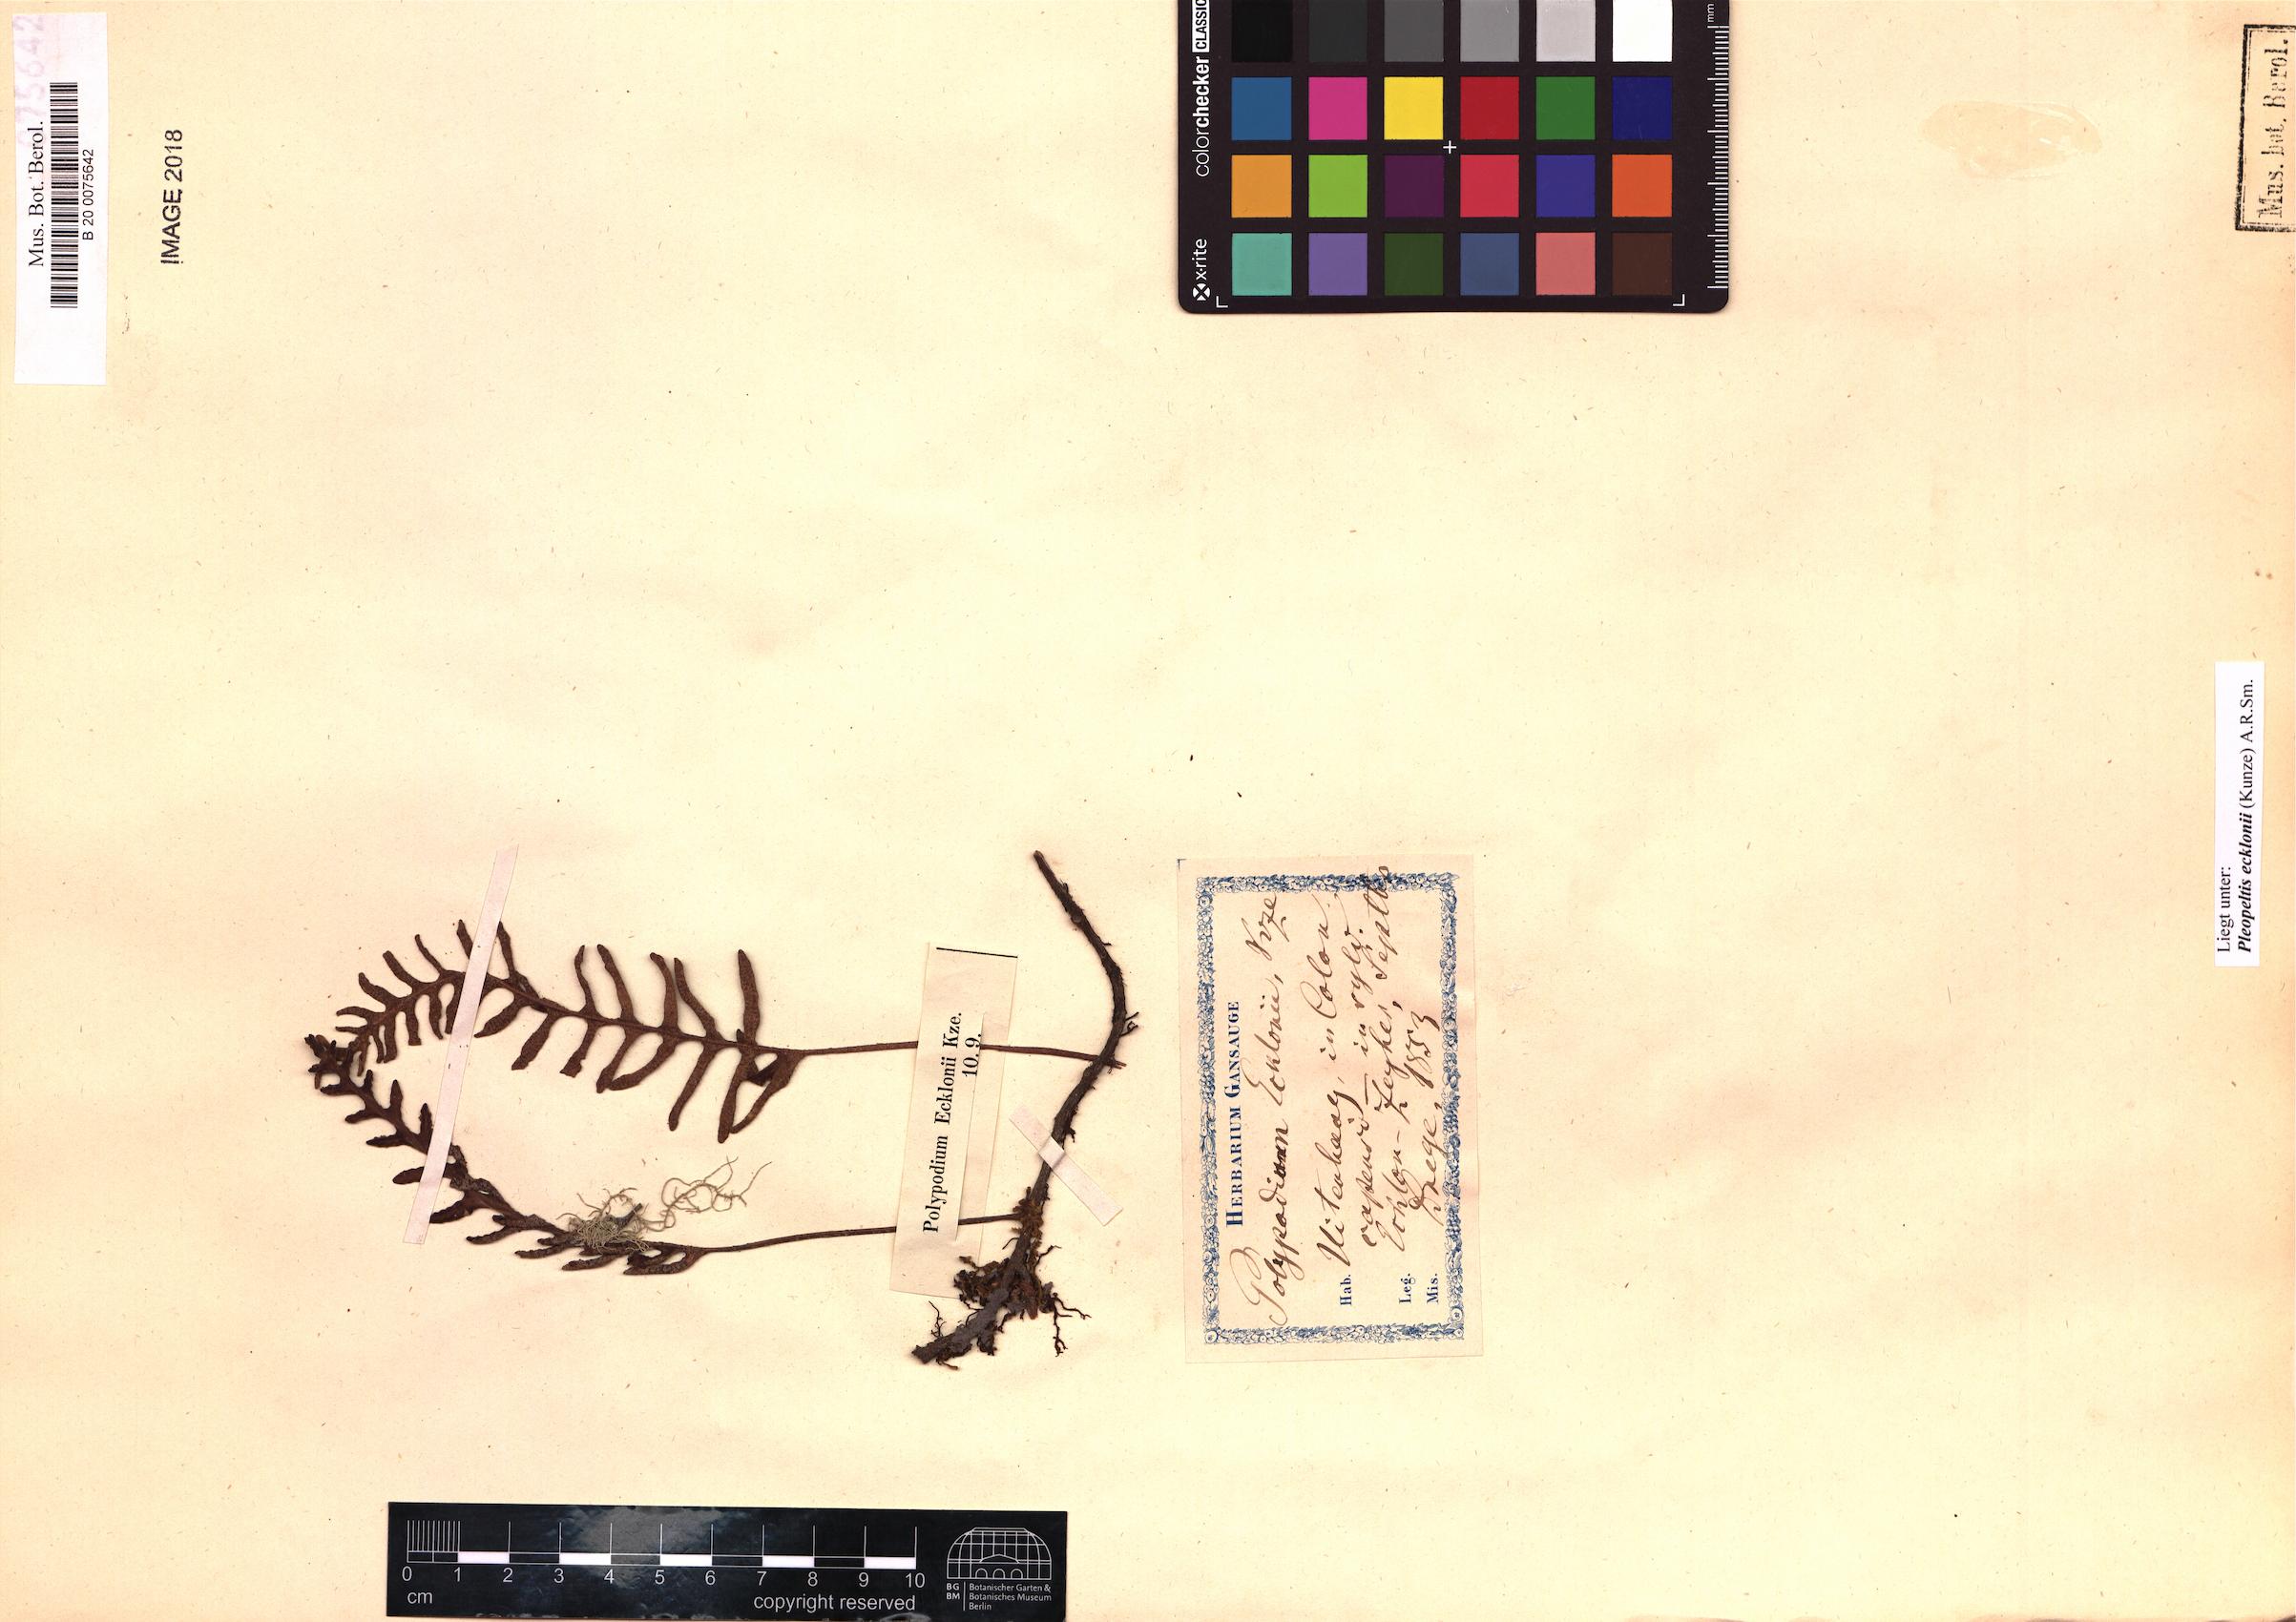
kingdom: Plantae
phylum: Tracheophyta
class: Polypodiopsida
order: Polypodiales
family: Polypodiaceae
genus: Pleopeltis
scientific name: Pleopeltis ecklonii
